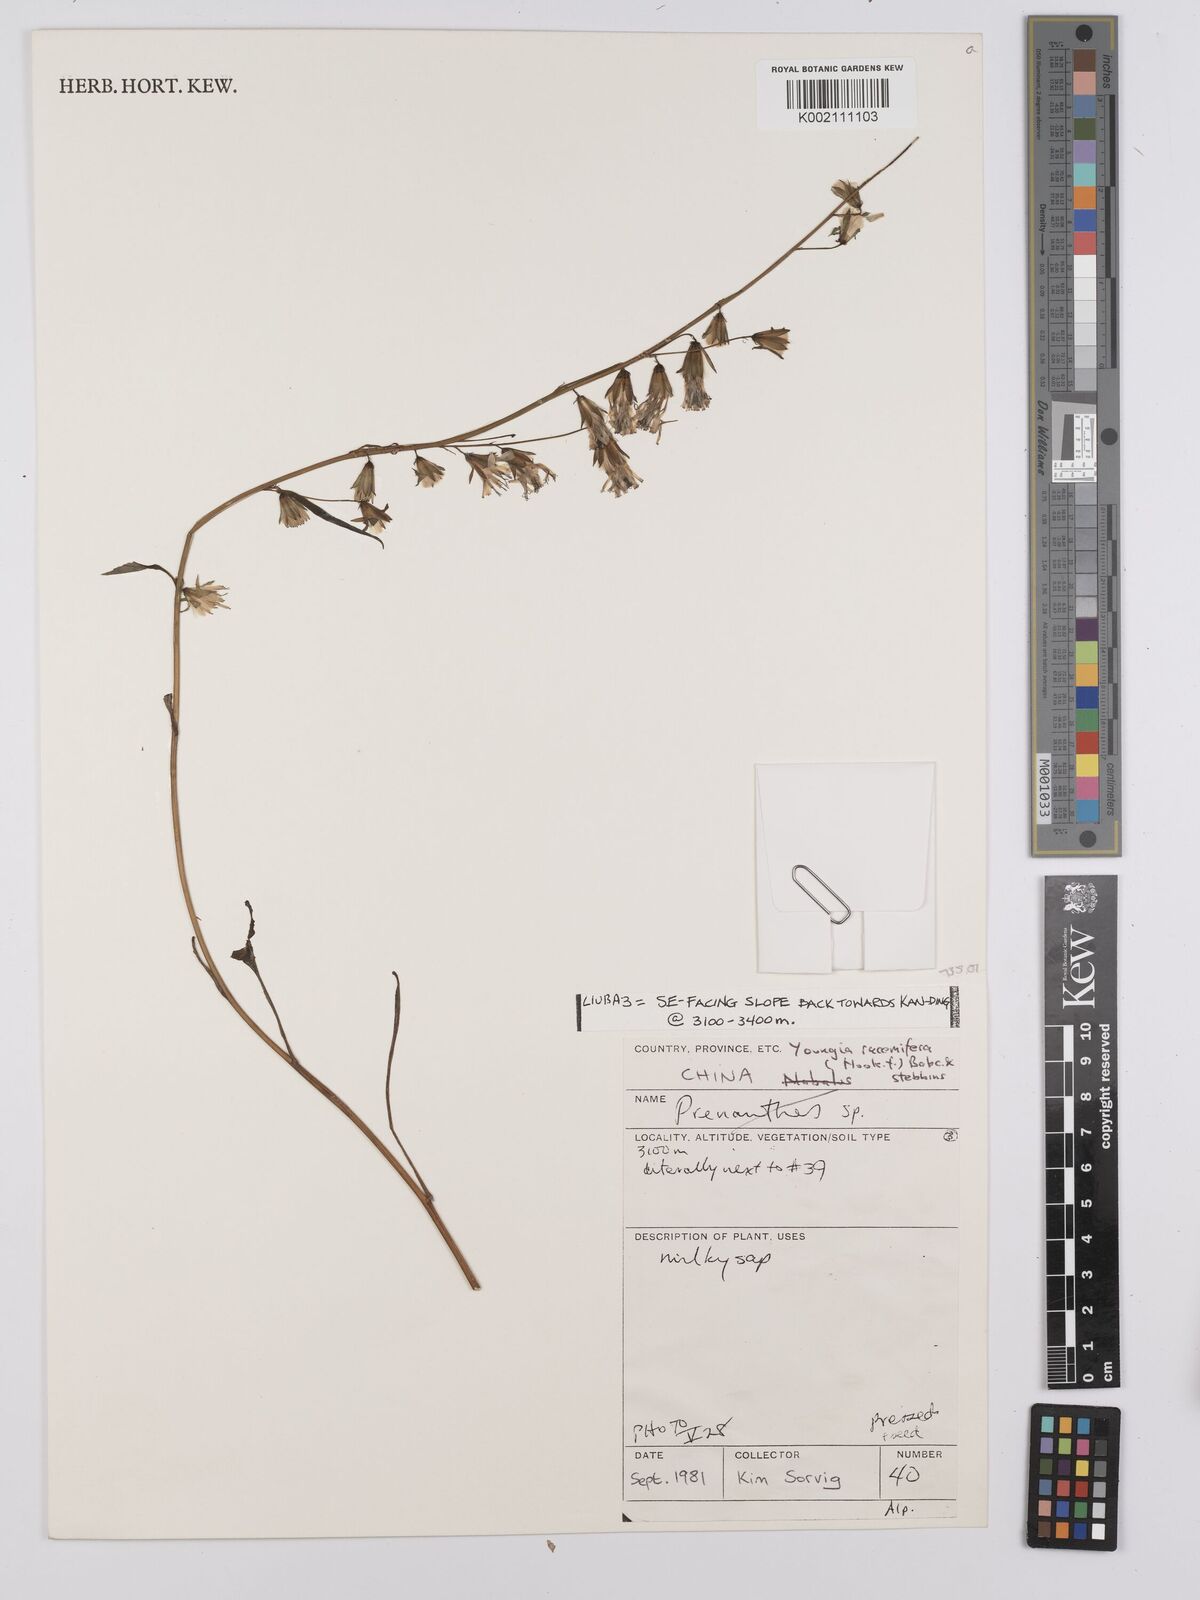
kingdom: Plantae
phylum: Tracheophyta
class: Magnoliopsida
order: Asterales
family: Asteraceae
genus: Youngia
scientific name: Youngia
